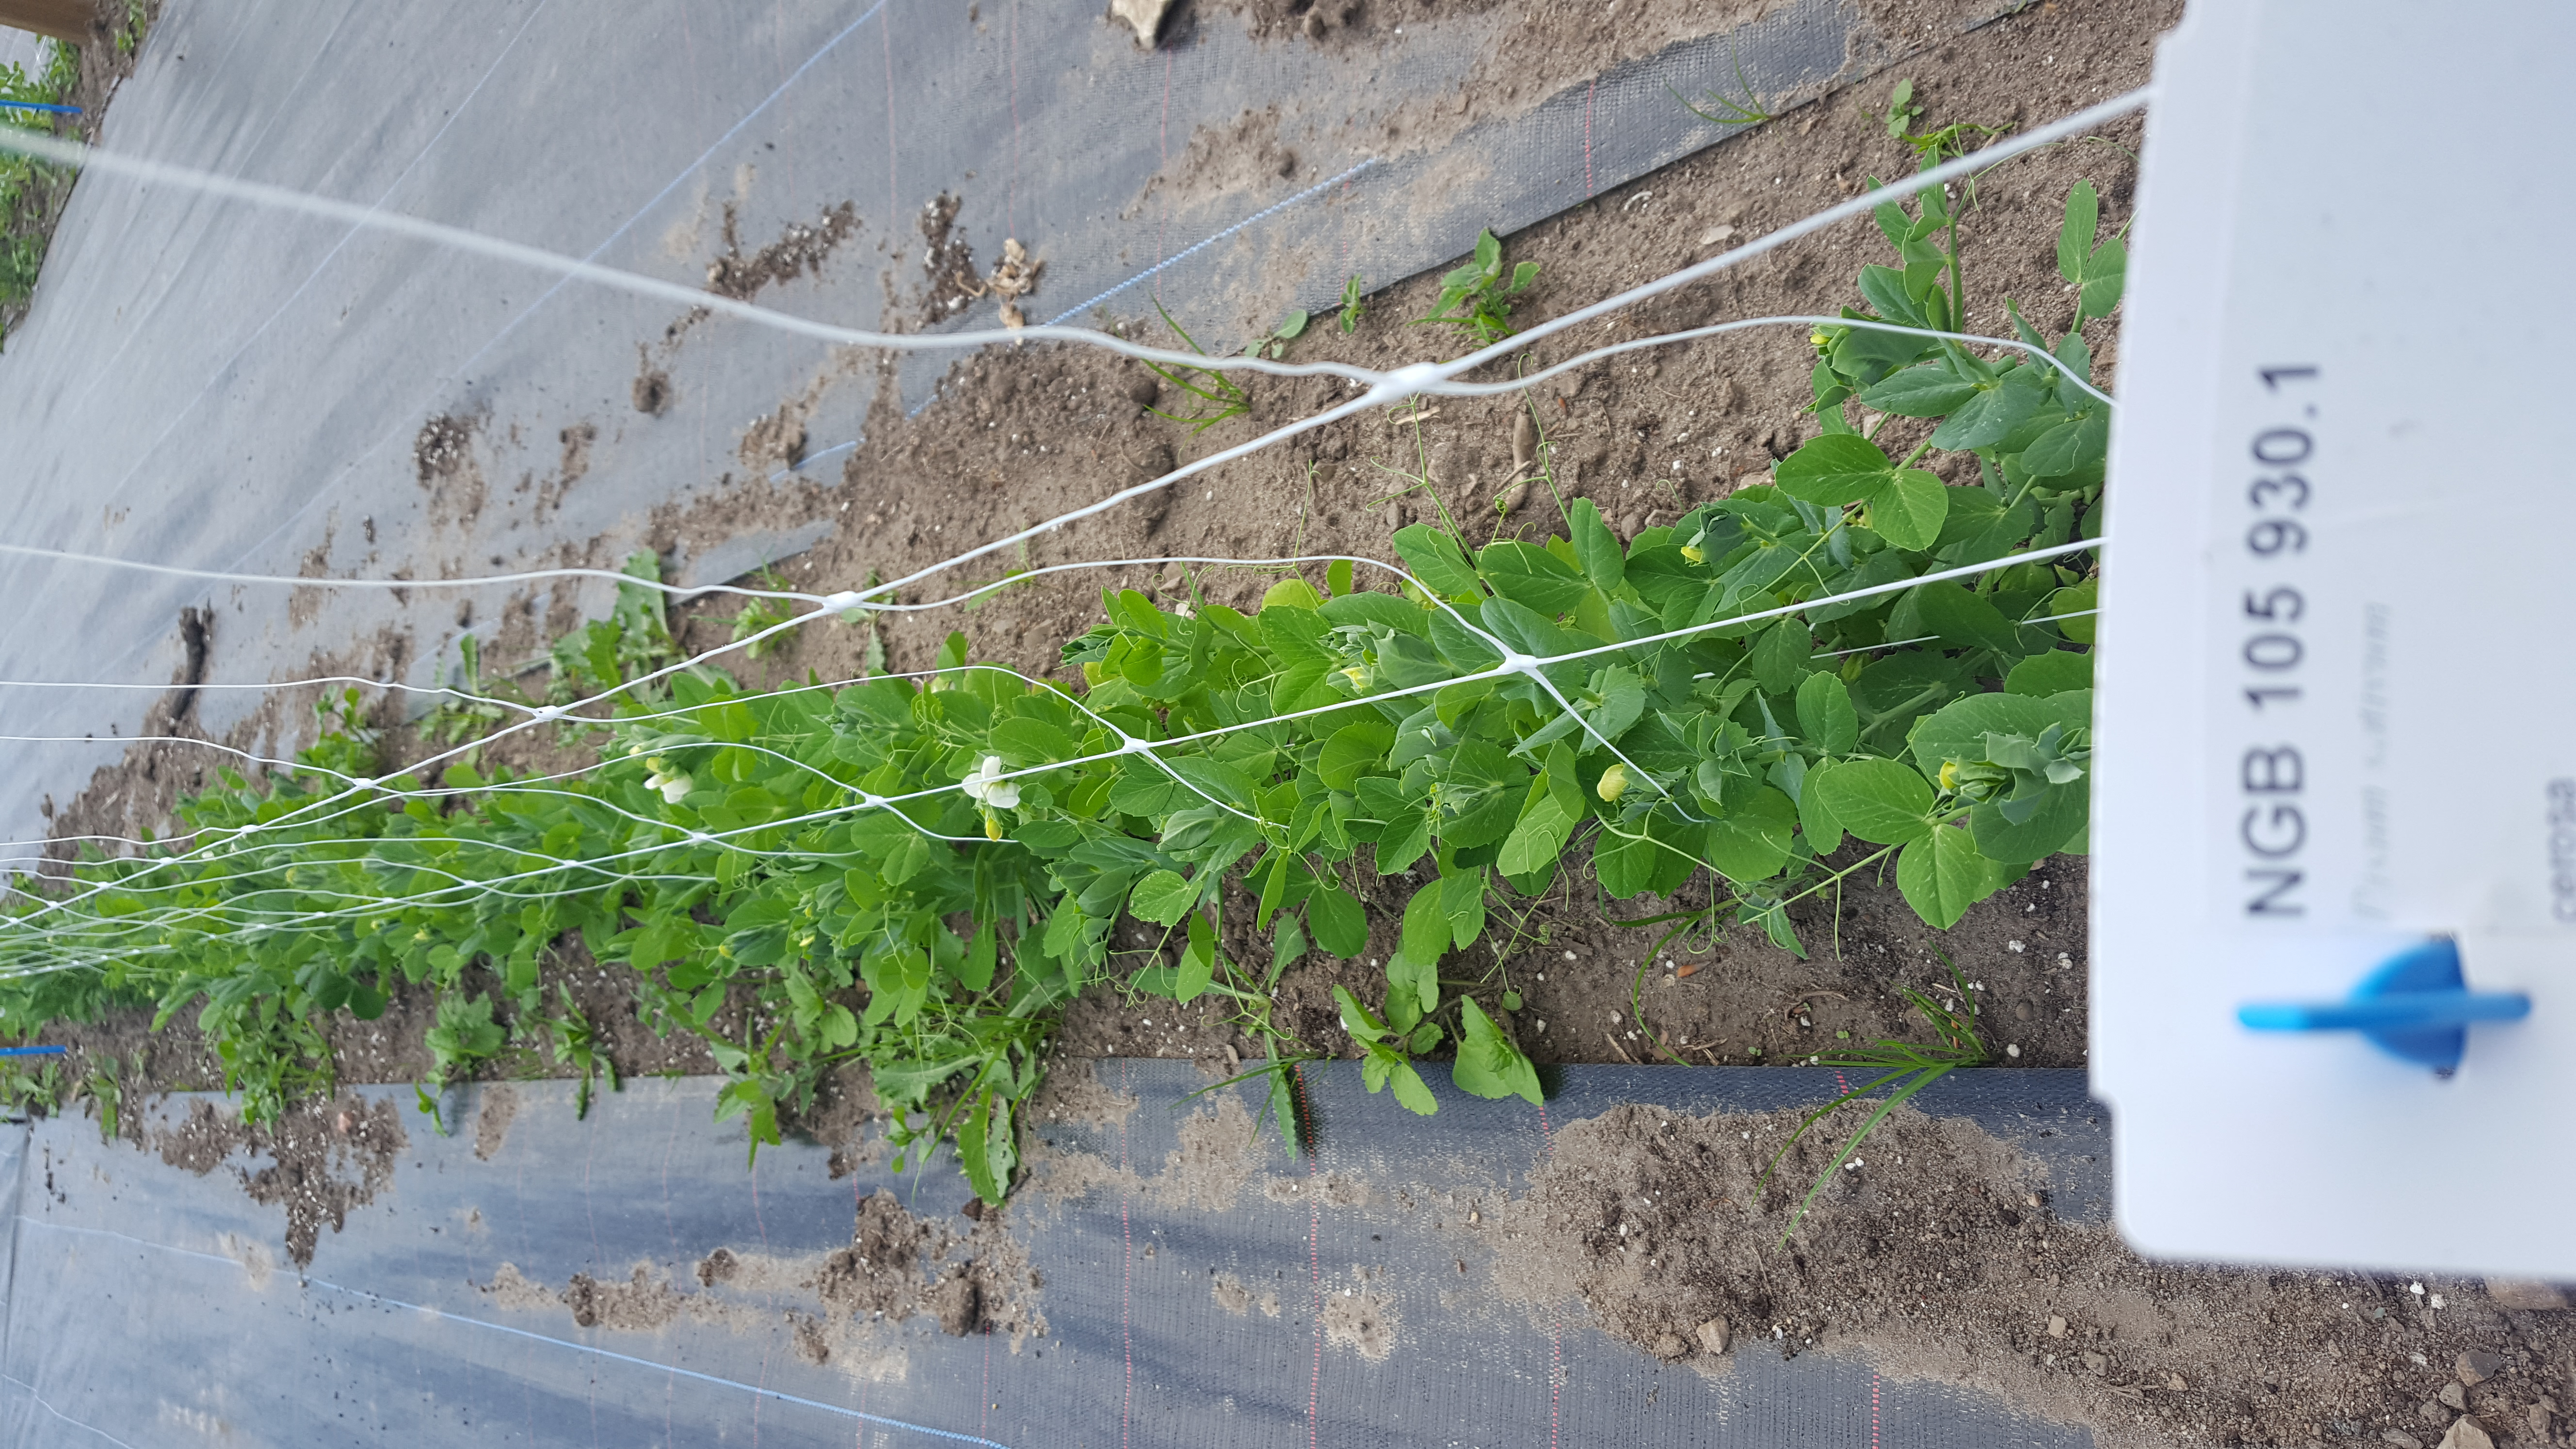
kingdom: Plantae
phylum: Tracheophyta
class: Magnoliopsida
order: Fabales
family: Fabaceae
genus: Lathyrus
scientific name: Lathyrus oleraceus
